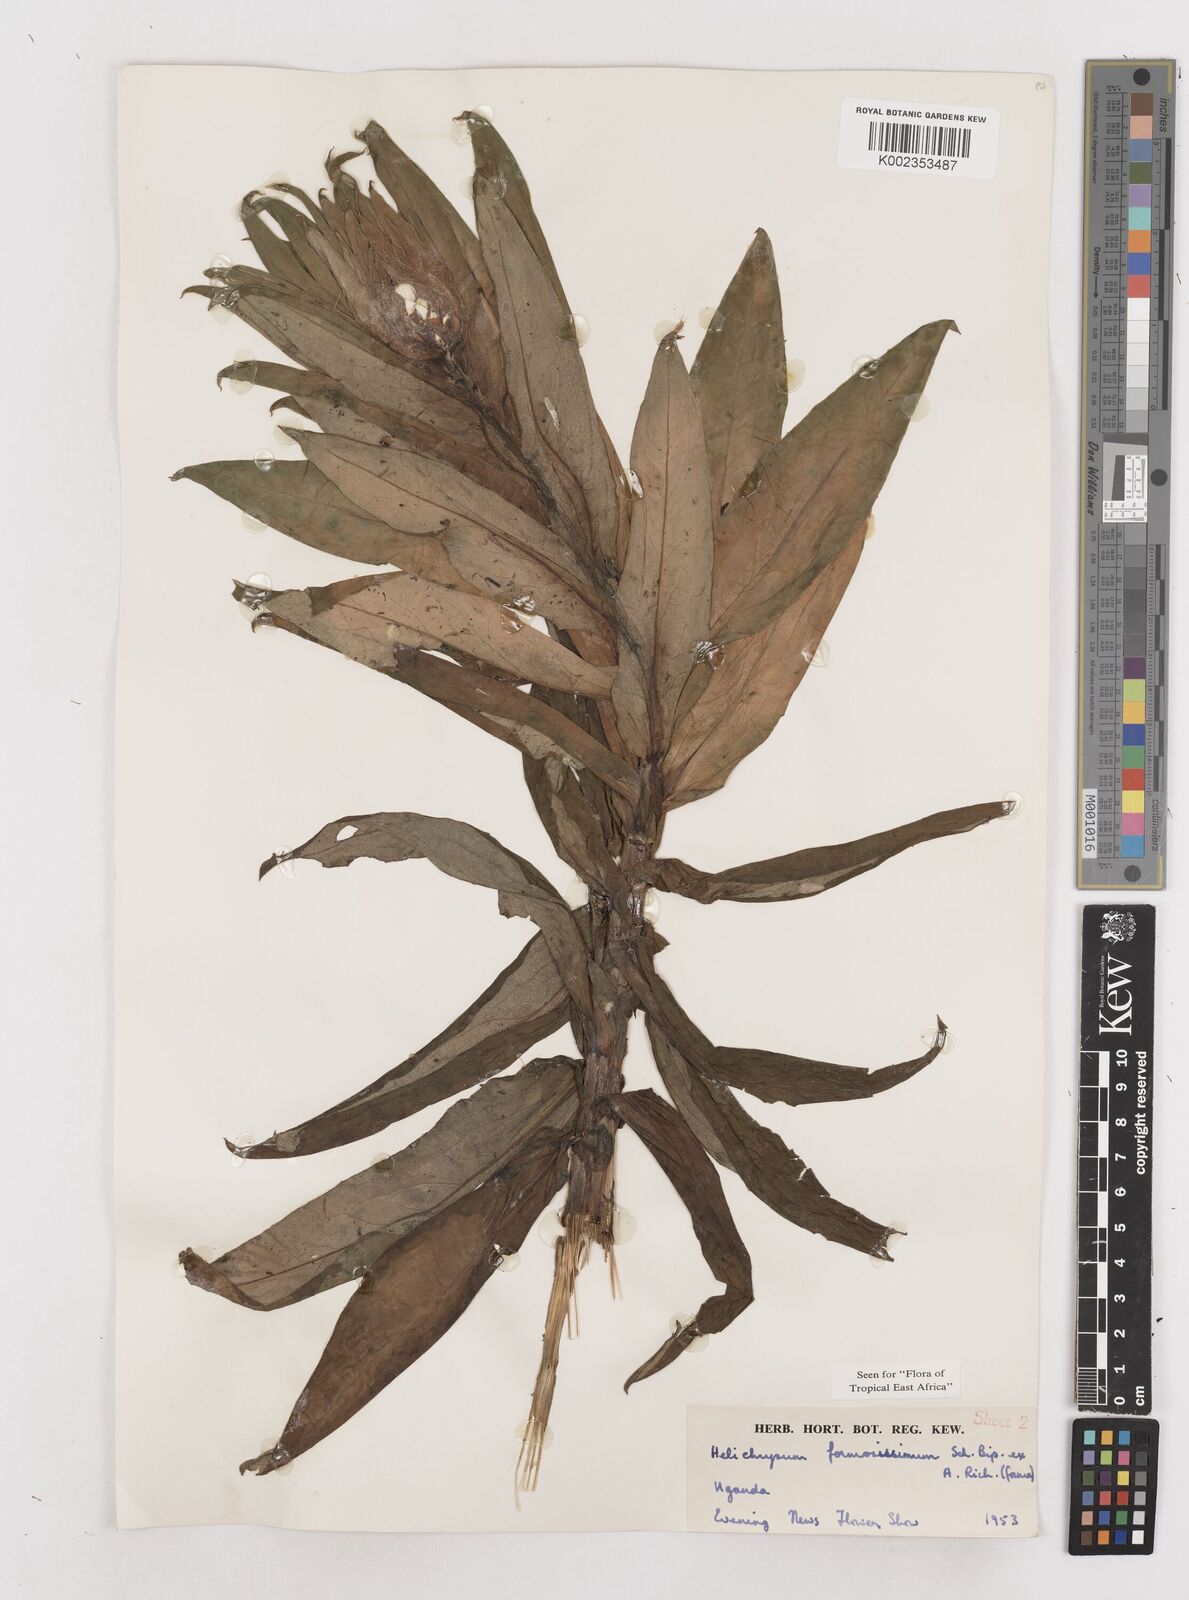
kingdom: Plantae
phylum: Tracheophyta
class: Magnoliopsida
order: Asterales
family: Asteraceae
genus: Helichrysum
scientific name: Helichrysum formosissimum
